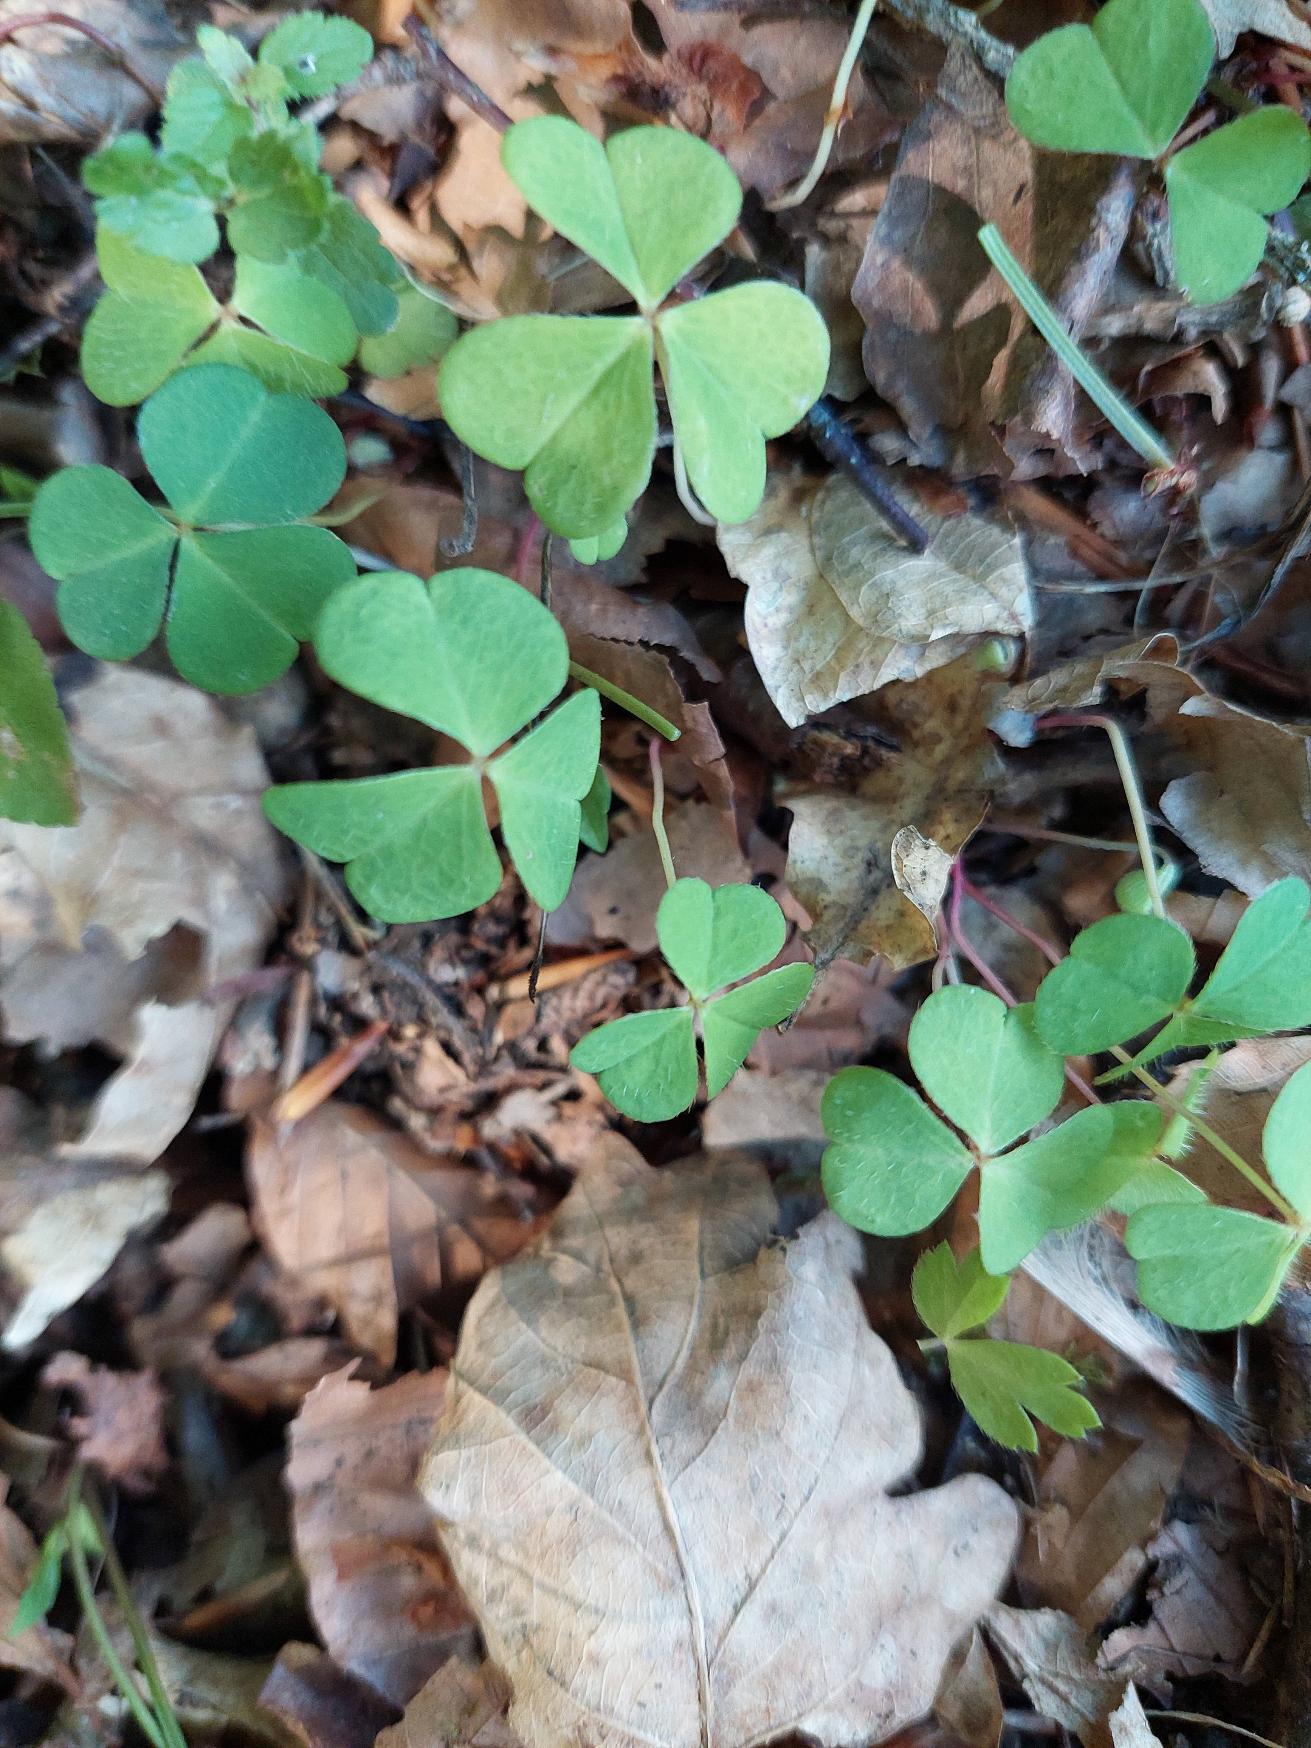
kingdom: Plantae
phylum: Tracheophyta
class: Magnoliopsida
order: Oxalidales
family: Oxalidaceae
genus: Oxalis
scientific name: Oxalis acetosella
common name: Skovsyre
